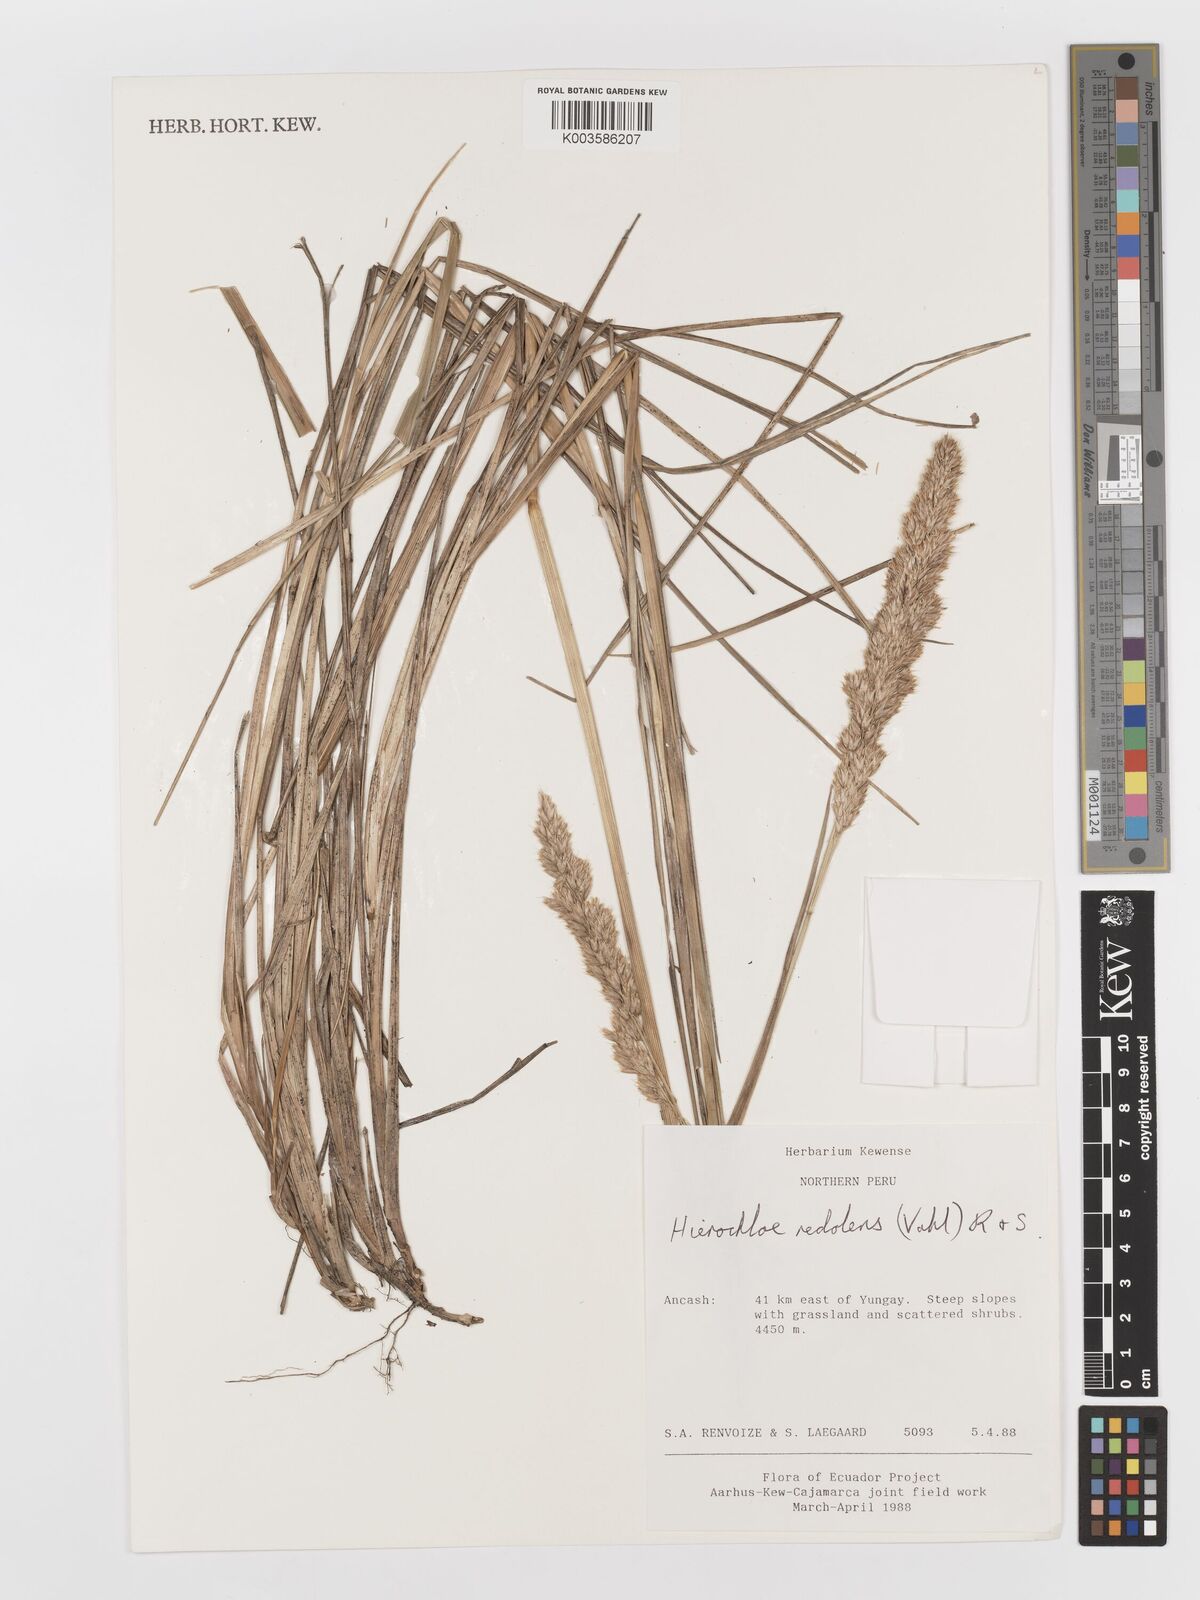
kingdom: Plantae
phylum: Tracheophyta
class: Liliopsida
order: Poales
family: Poaceae
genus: Anthoxanthum
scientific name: Anthoxanthum quebrada
